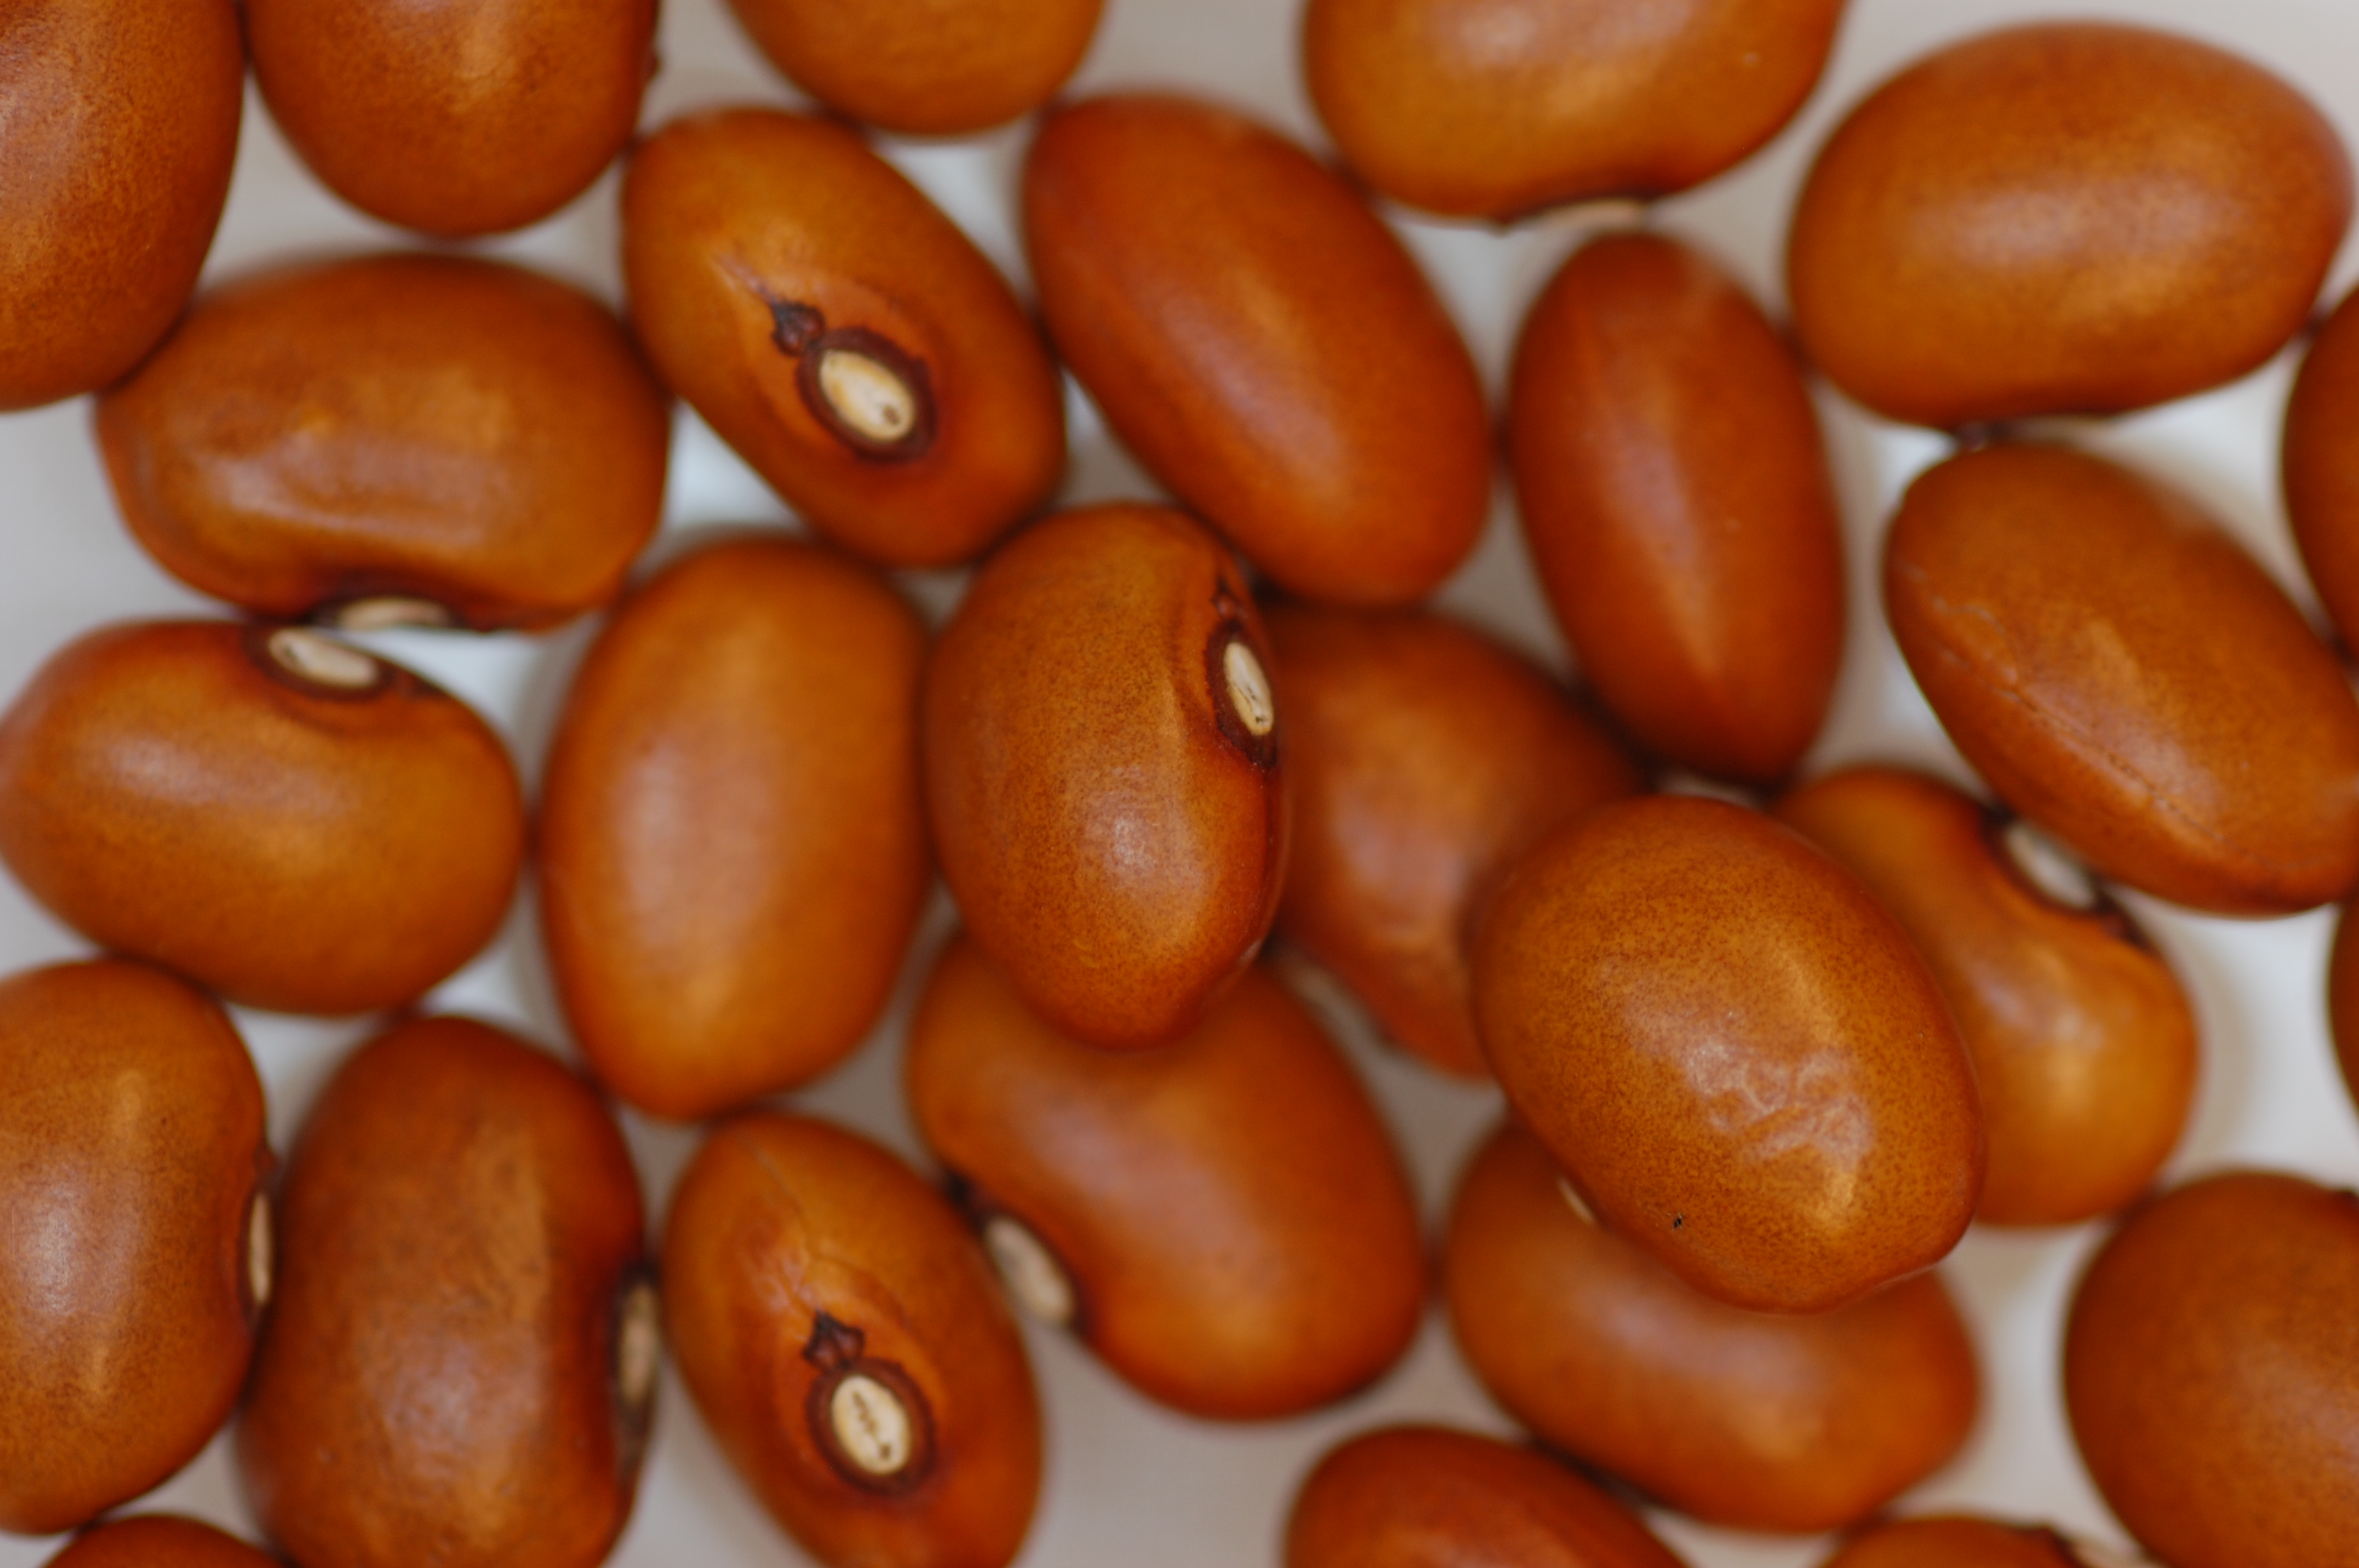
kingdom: Plantae
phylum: Tracheophyta
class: Magnoliopsida
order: Fabales
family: Fabaceae
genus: Phaseolus
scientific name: Phaseolus vulgaris
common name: Bean
